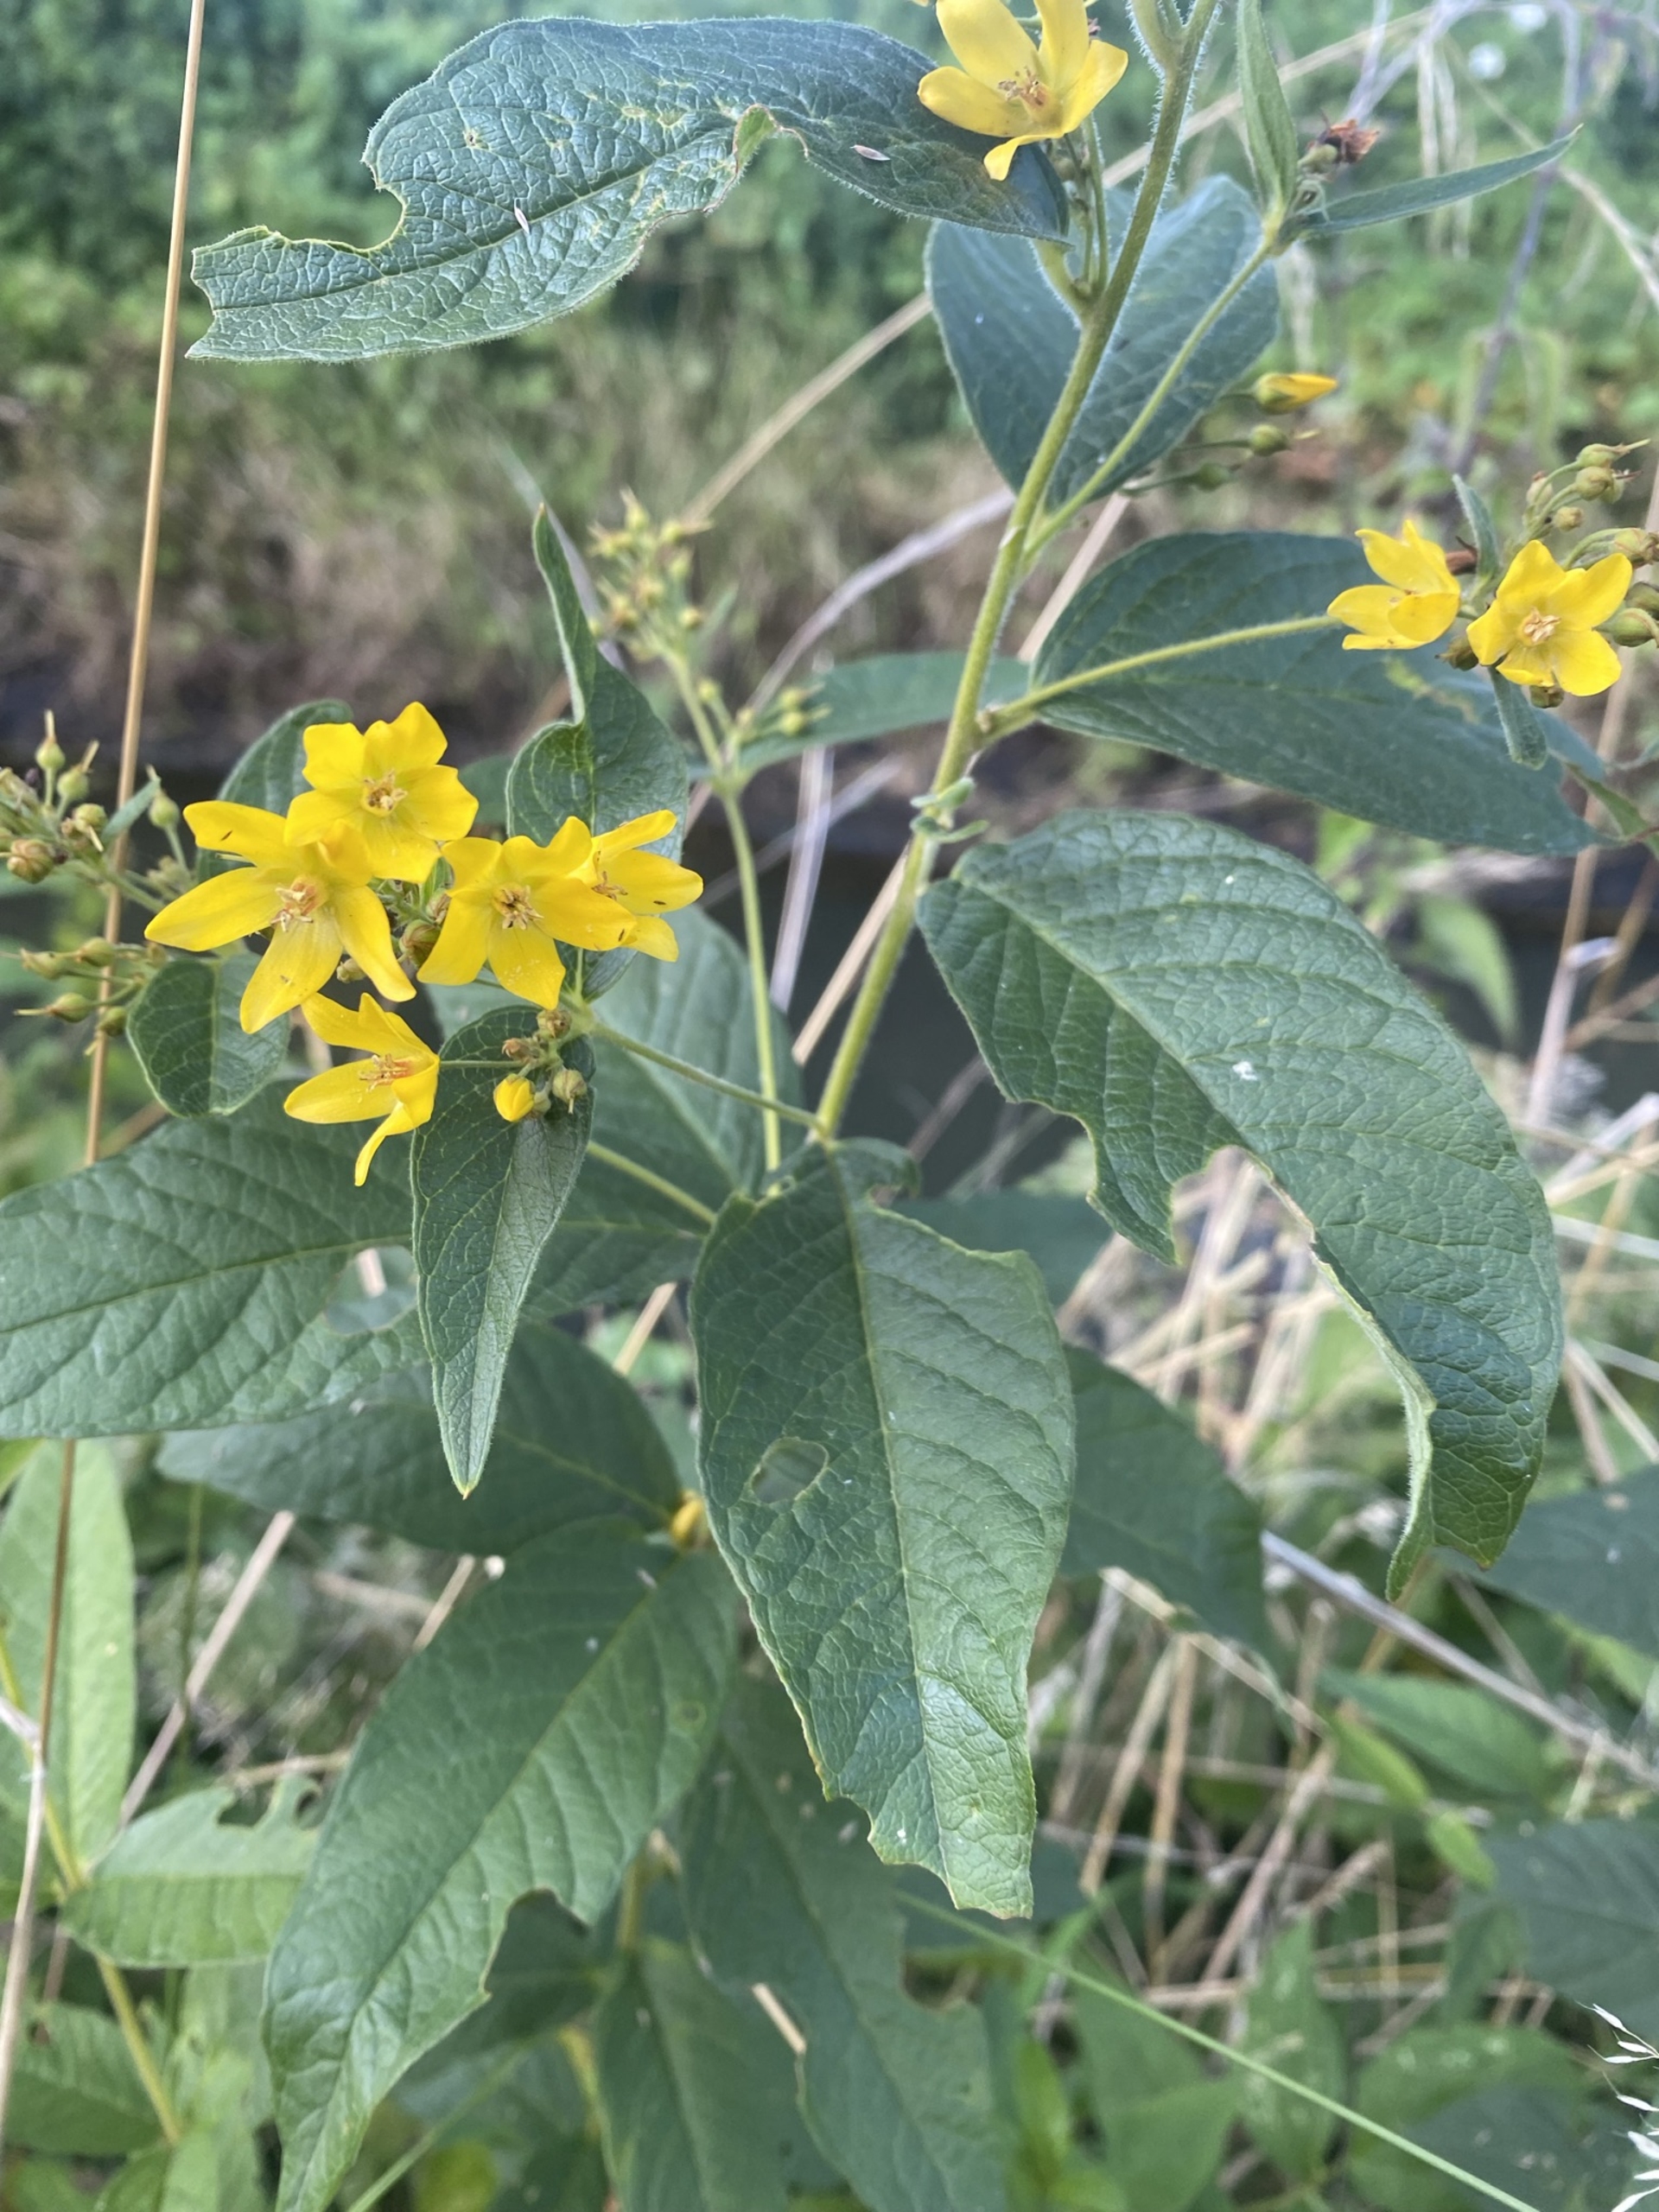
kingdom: Plantae
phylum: Tracheophyta
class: Magnoliopsida
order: Ericales
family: Primulaceae
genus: Lysimachia
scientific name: Lysimachia vulgaris
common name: Almindelig fredløs
